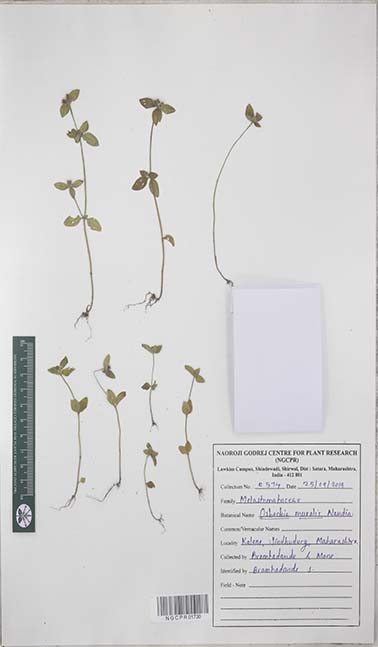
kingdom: Plantae
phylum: Tracheophyta
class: Magnoliopsida
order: Myrtales
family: Melastomataceae
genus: Osbeckia
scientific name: Osbeckia muralis
